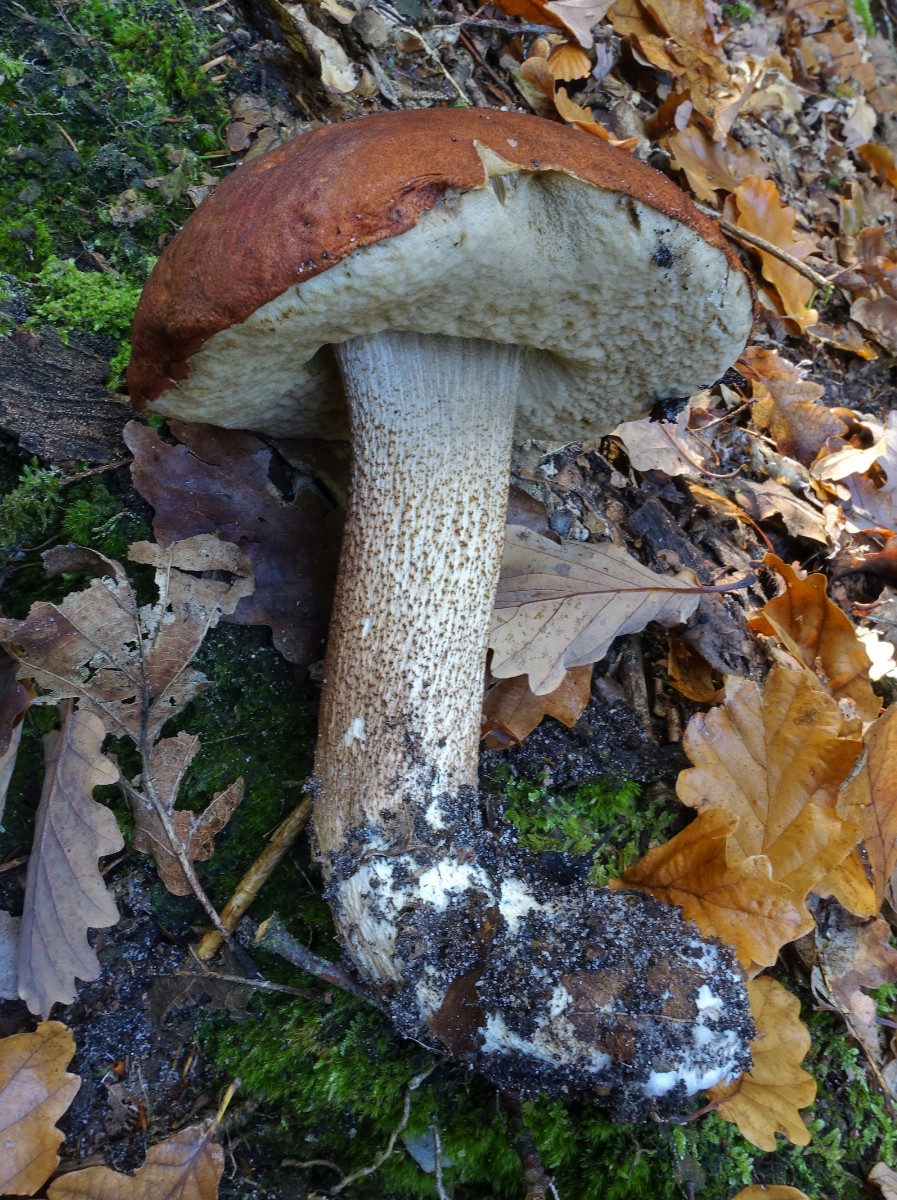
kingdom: Fungi
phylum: Basidiomycota
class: Agaricomycetes
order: Boletales
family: Boletaceae
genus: Leccinum
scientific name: Leccinum aurantiacum
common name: rustrød skælrørhat
